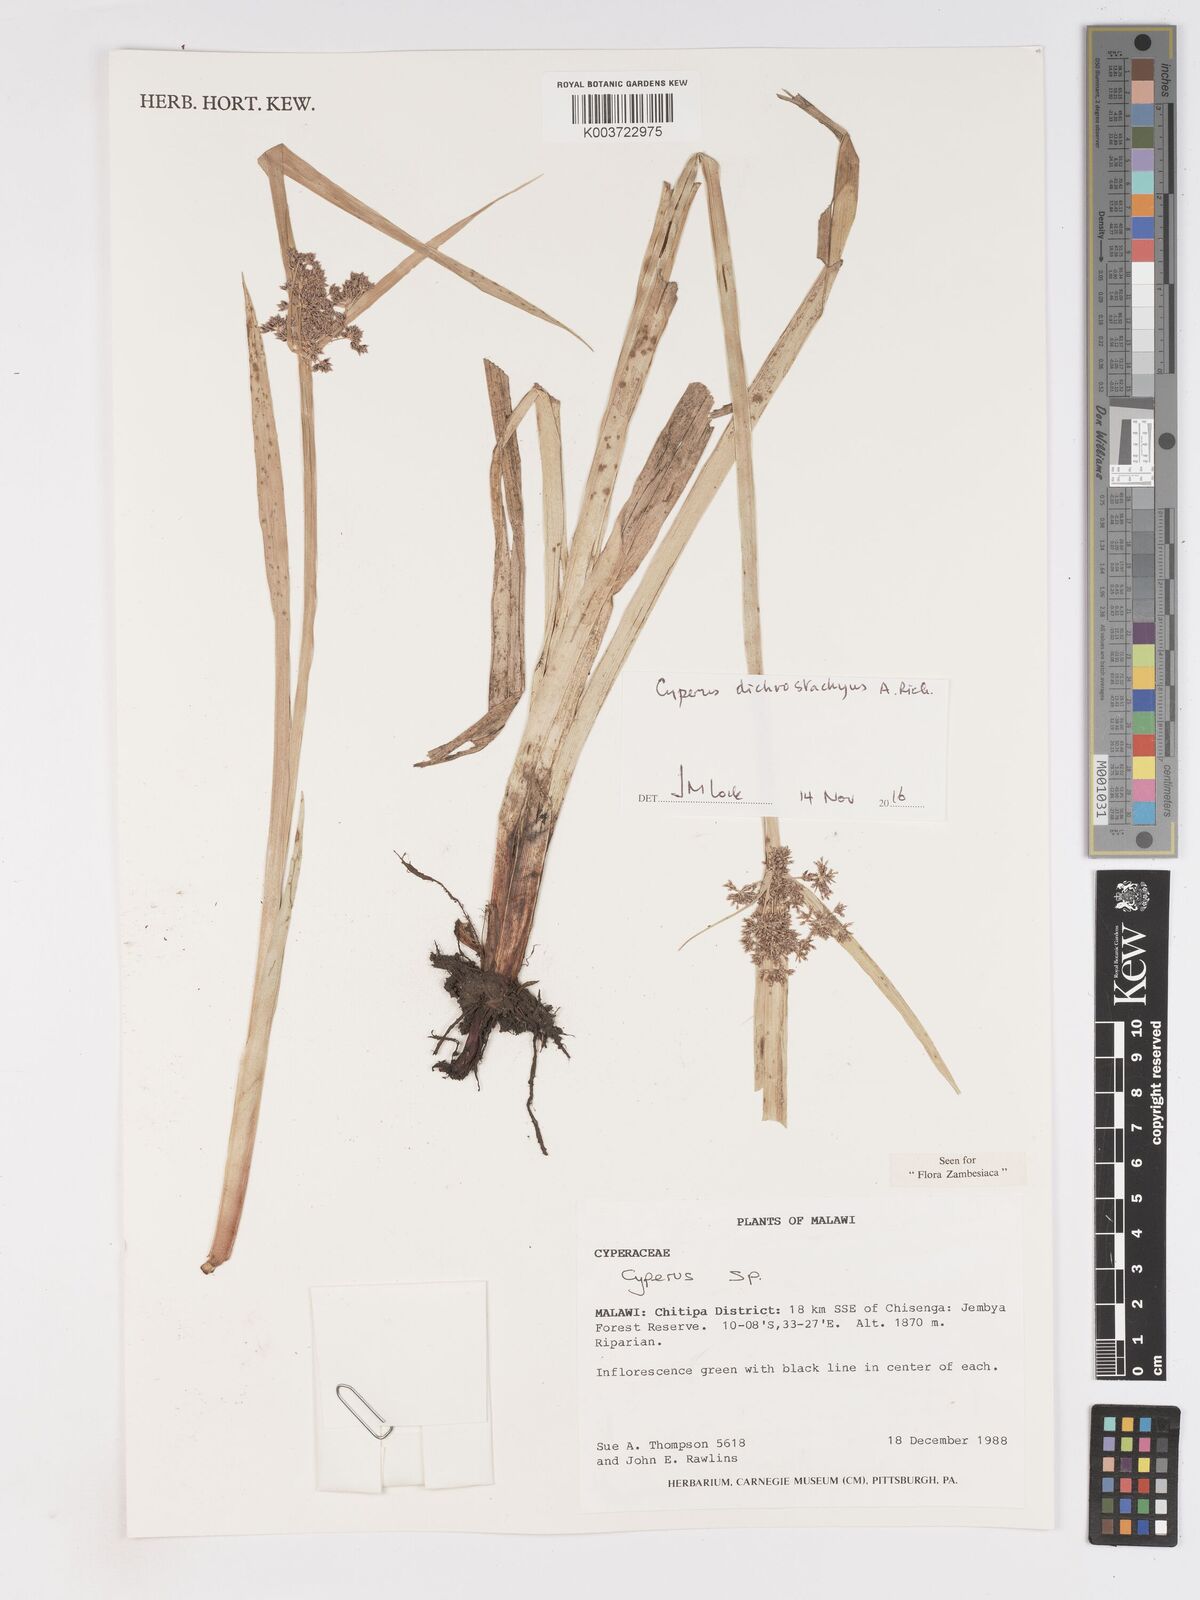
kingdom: Plantae
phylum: Tracheophyta
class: Liliopsida
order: Poales
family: Cyperaceae
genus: Cyperus
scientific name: Cyperus dichrostachyus
